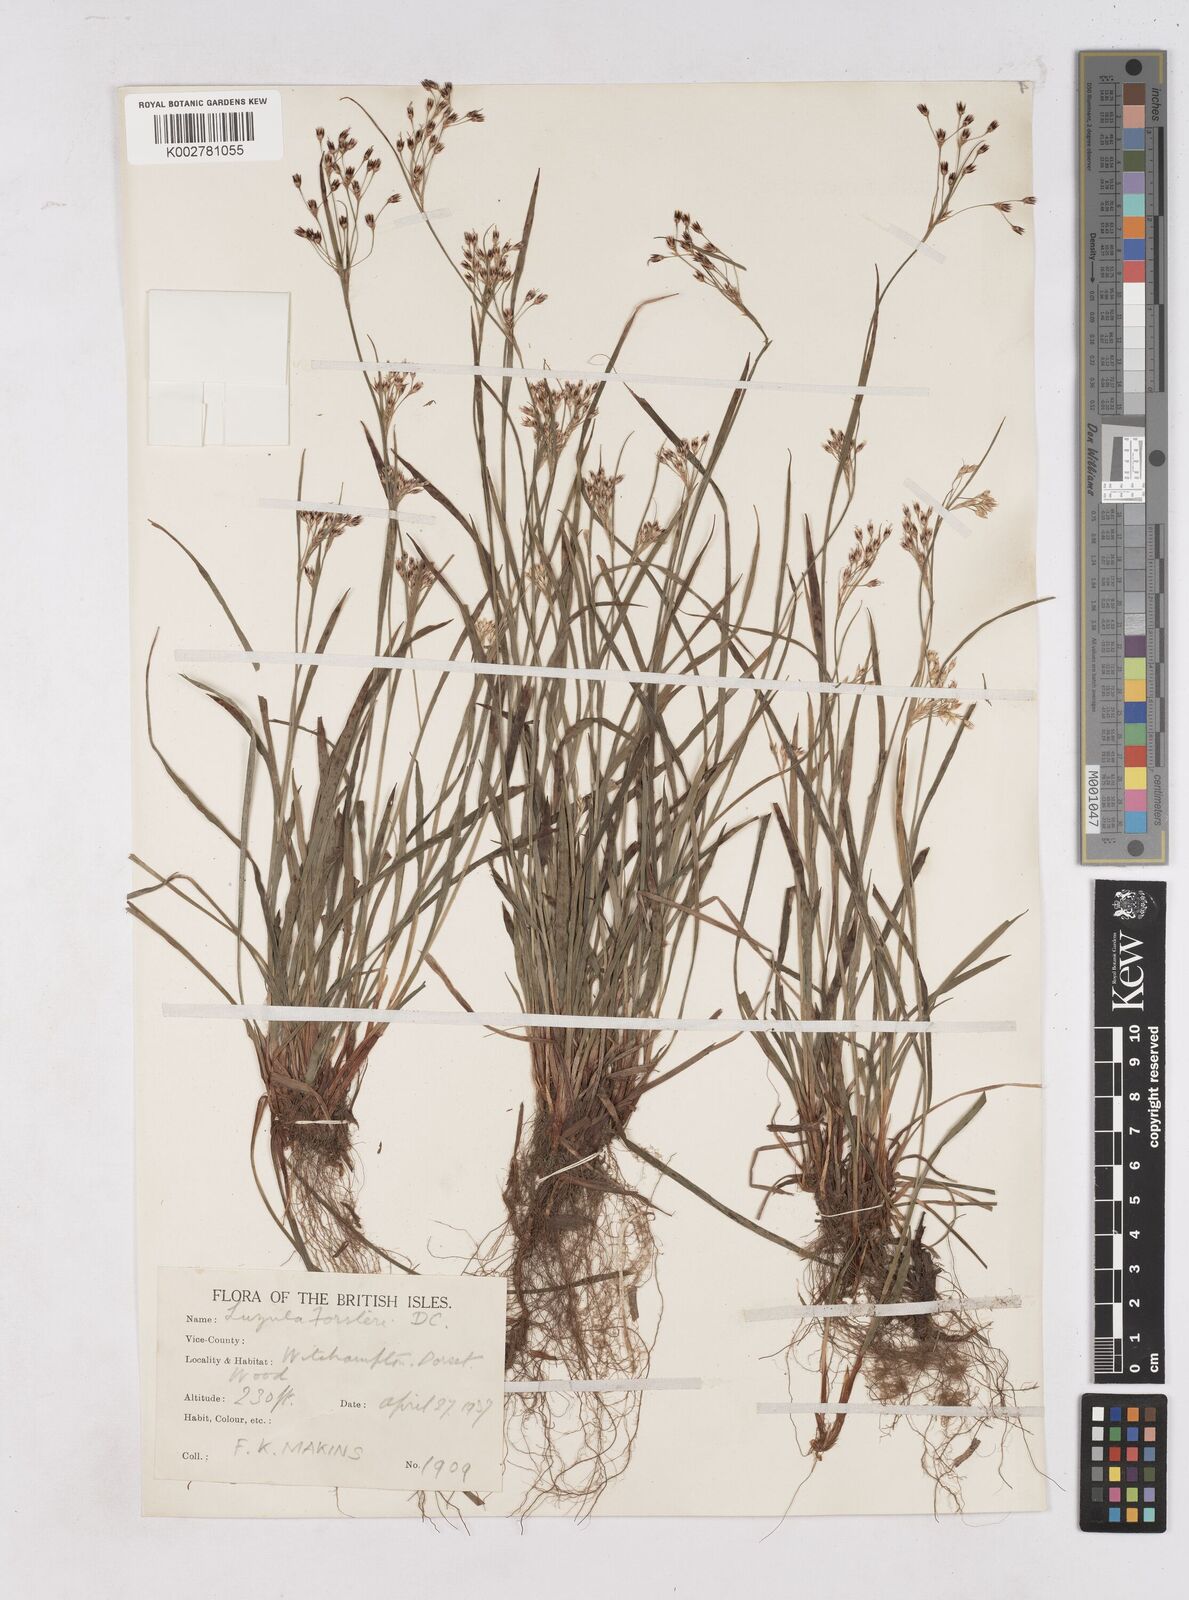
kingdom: Plantae
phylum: Tracheophyta
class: Liliopsida
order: Poales
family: Juncaceae
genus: Luzula
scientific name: Luzula forsteri
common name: Southern wood-rush
